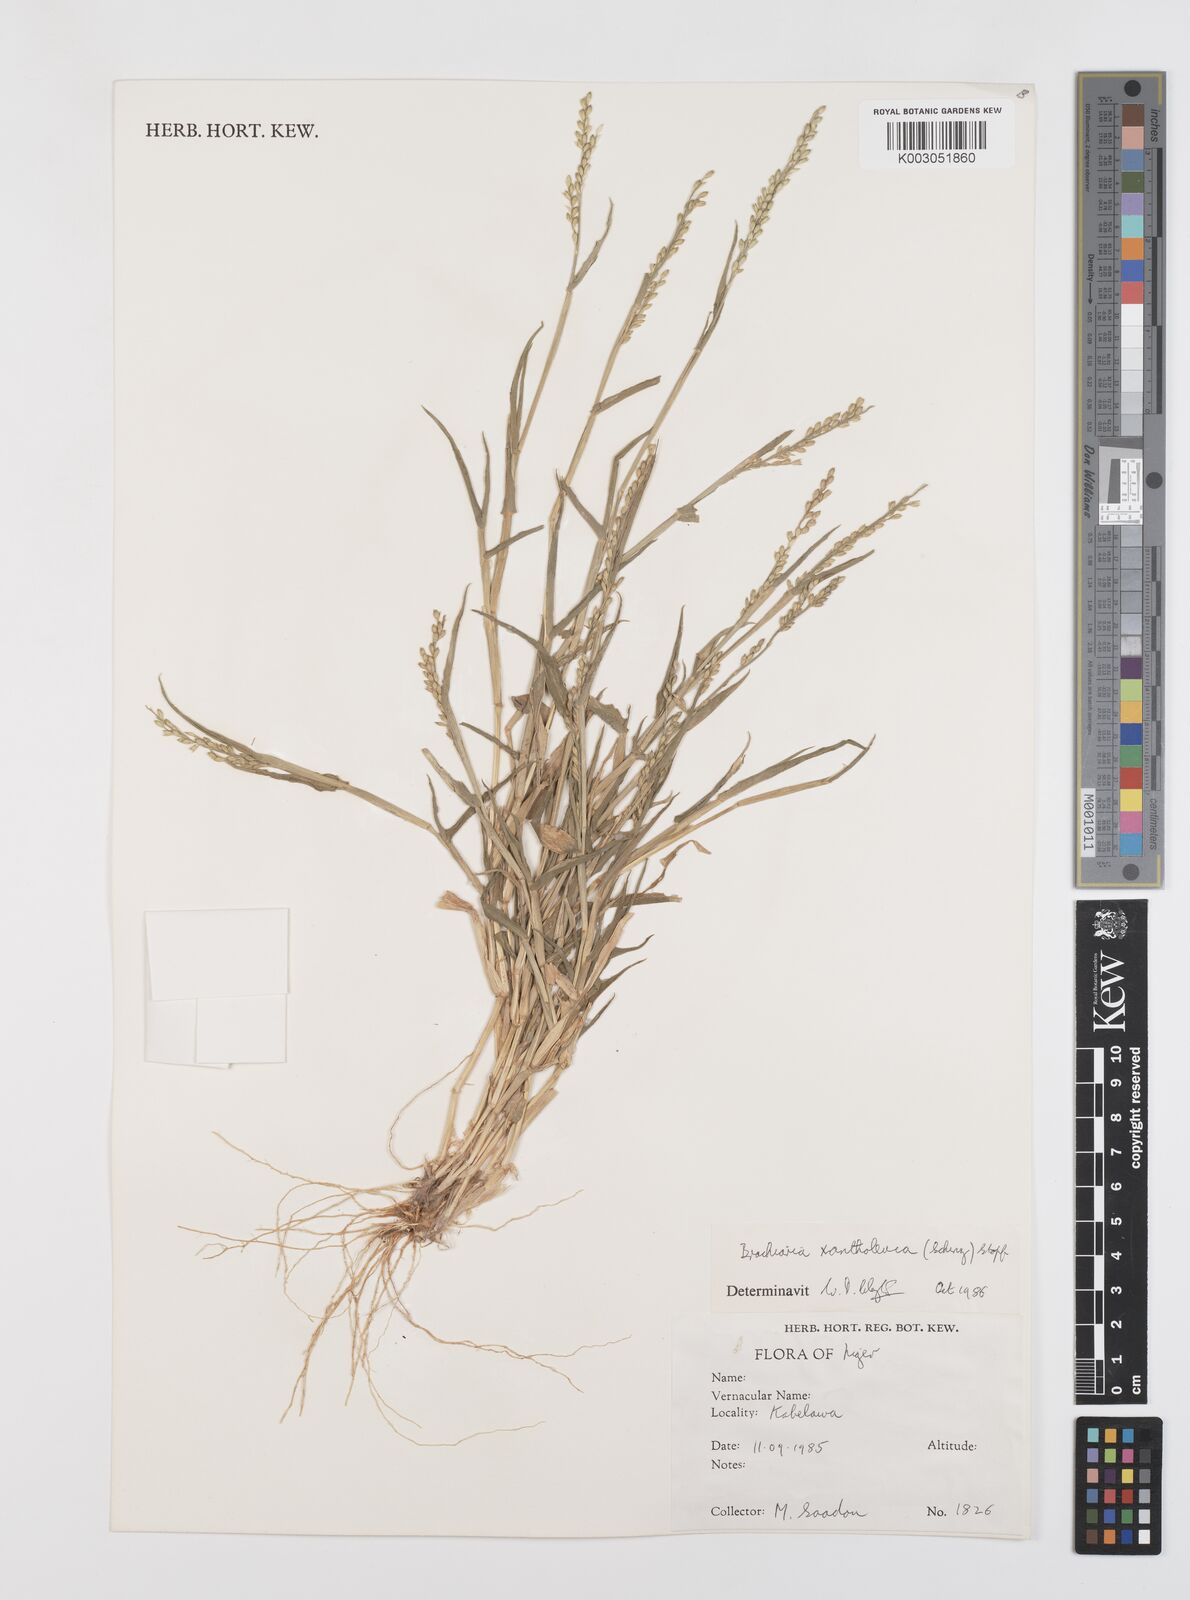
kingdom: Plantae
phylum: Tracheophyta
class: Liliopsida
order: Poales
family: Poaceae
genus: Urochloa
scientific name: Urochloa xantholeuca
